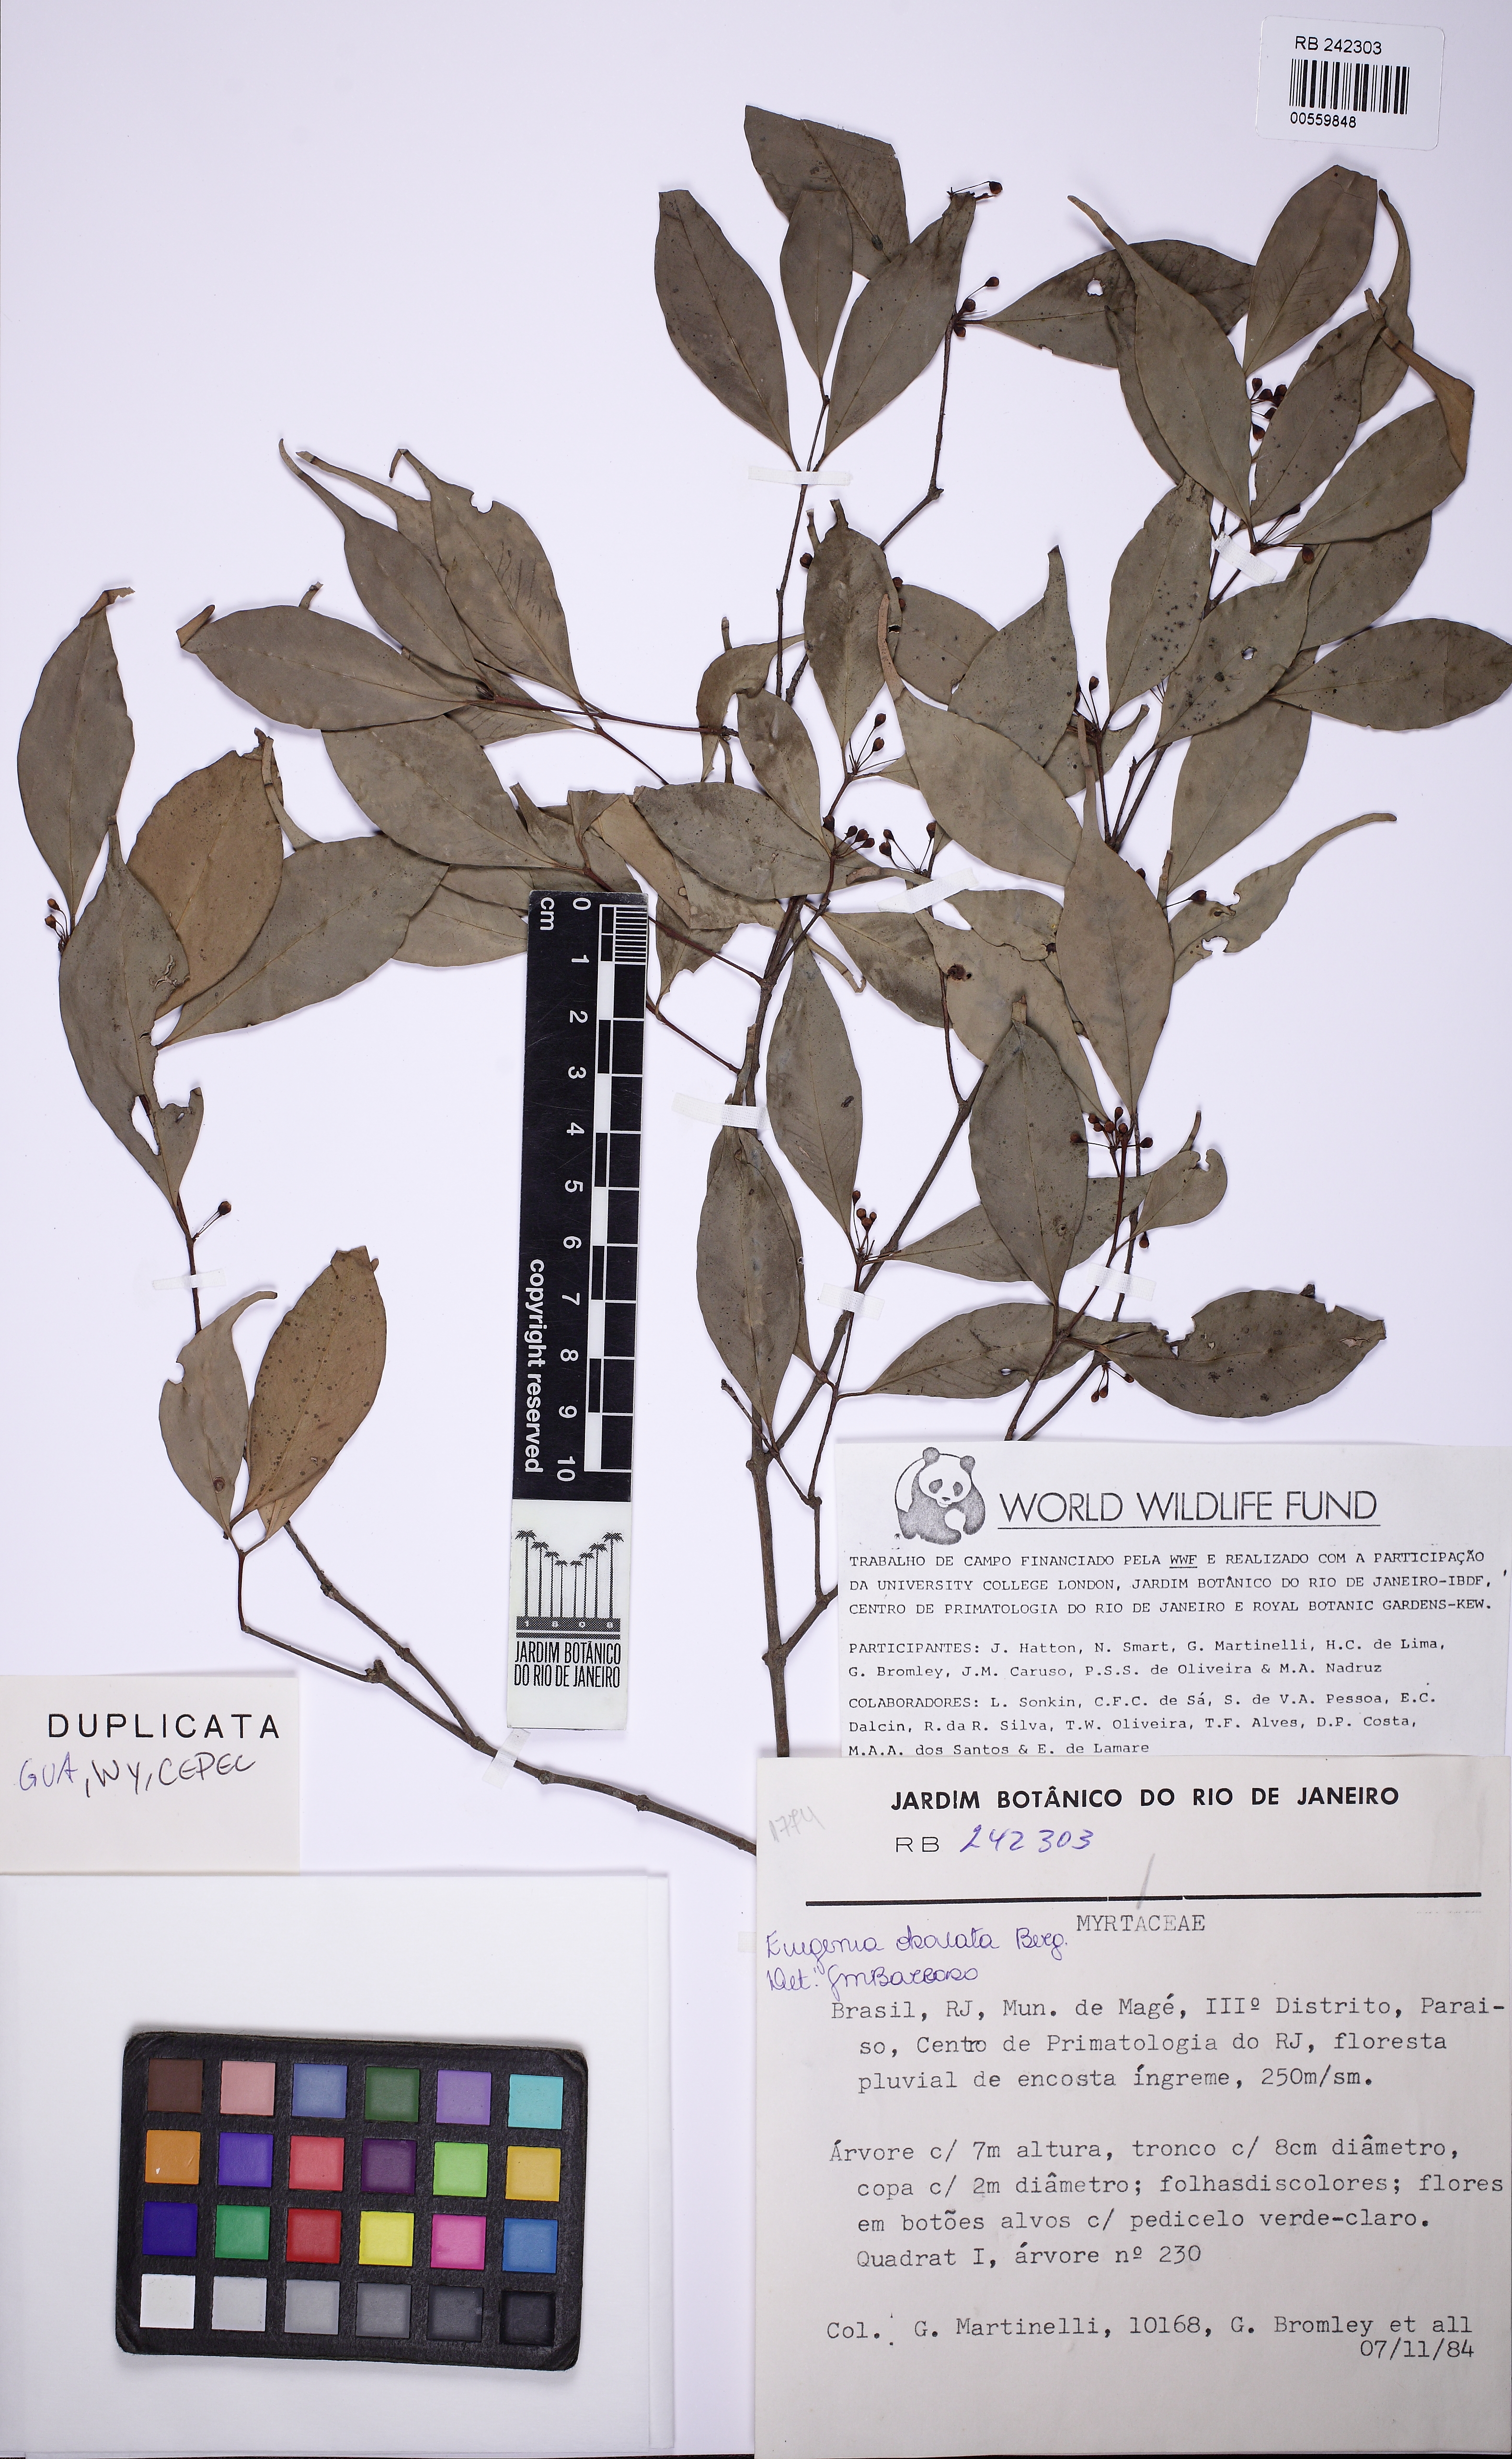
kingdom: Plantae
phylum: Tracheophyta
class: Magnoliopsida
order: Myrtales
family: Myrtaceae
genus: Eugenia
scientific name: Eugenia excelsa
